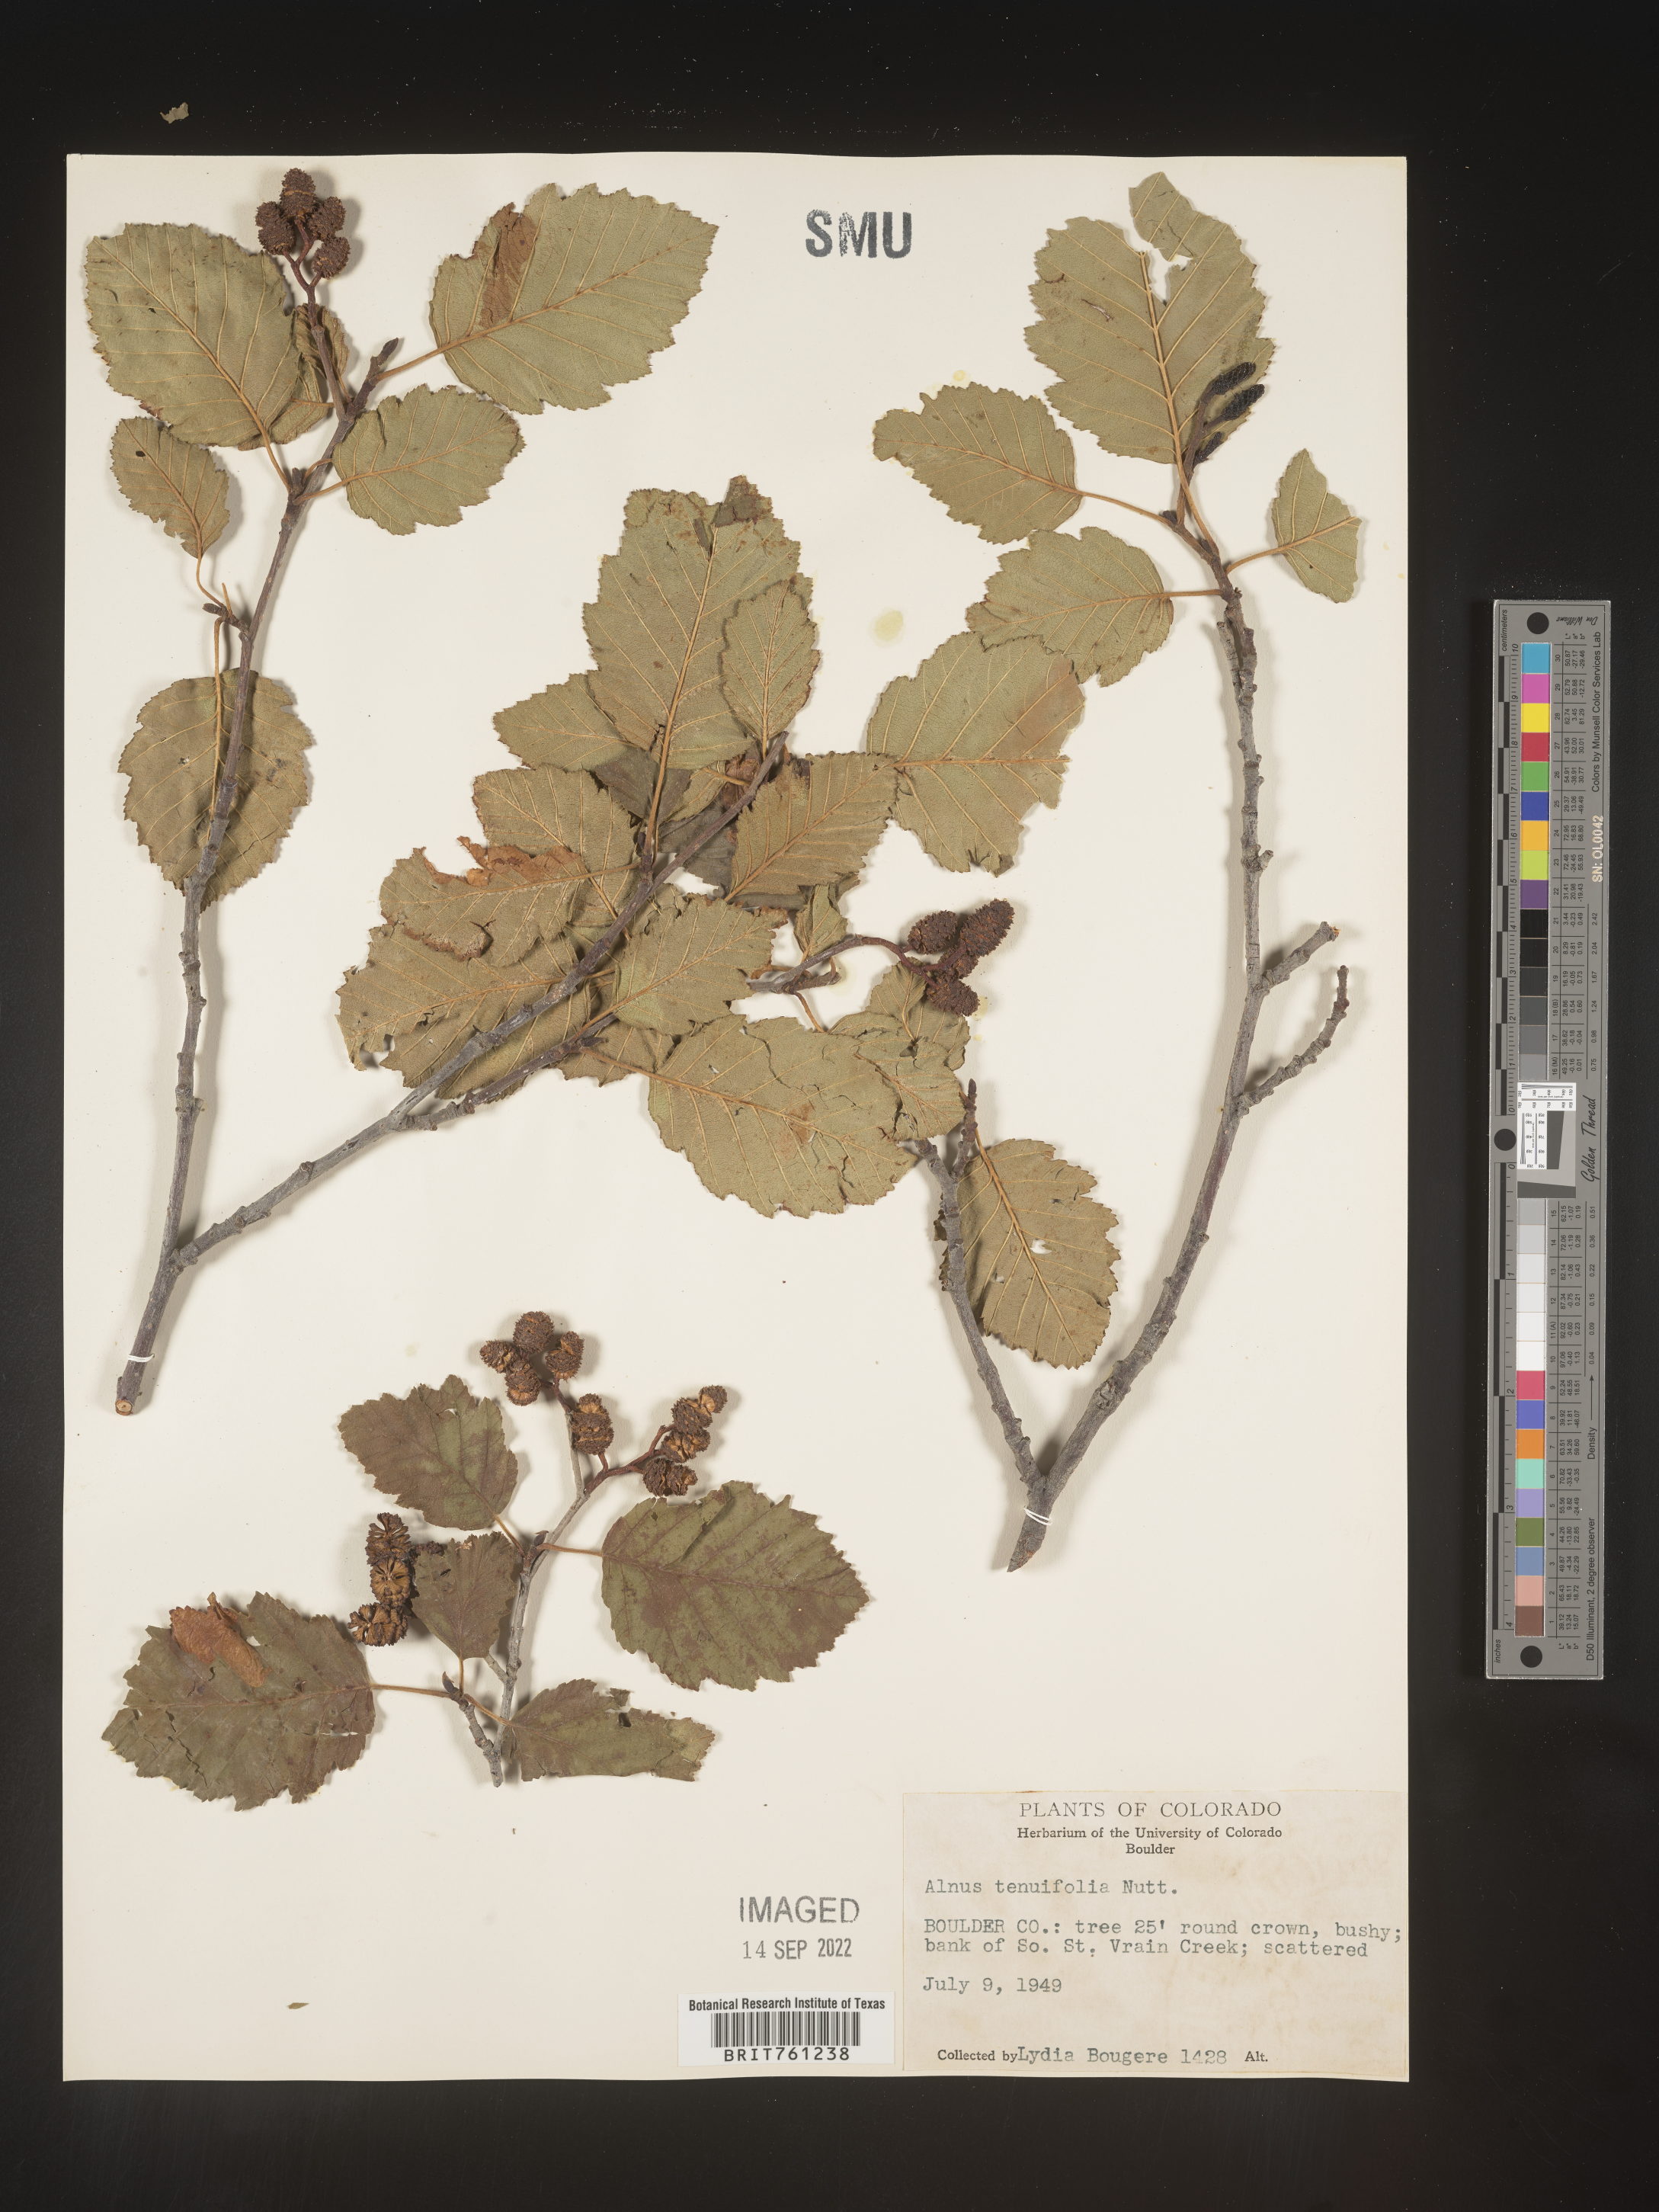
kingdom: Plantae
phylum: Tracheophyta
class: Magnoliopsida
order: Fagales
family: Betulaceae
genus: Alnus
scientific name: Alnus incana
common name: Grey alder
